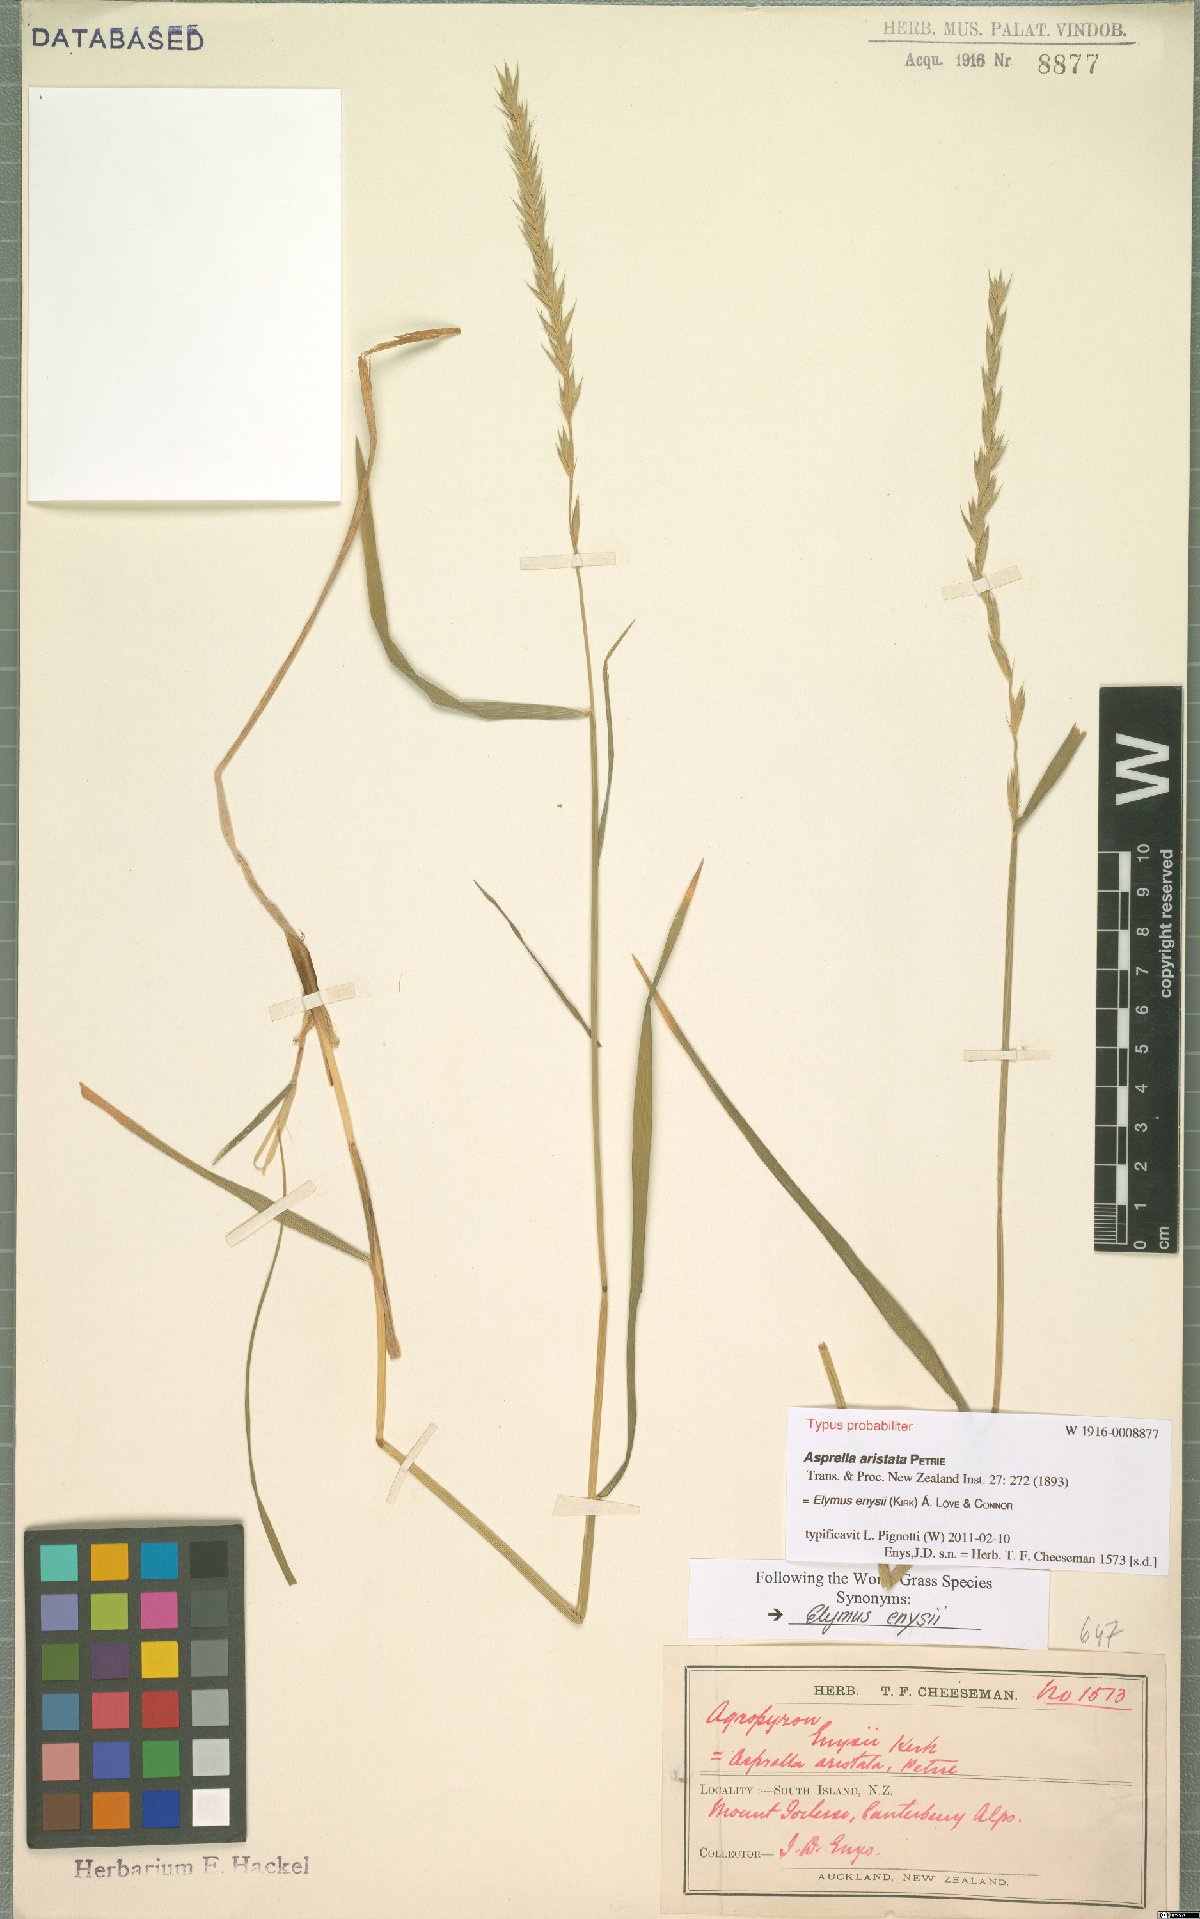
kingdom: Plantae
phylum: Tracheophyta
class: Liliopsida
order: Poales
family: Poaceae
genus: Stenostachys
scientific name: Stenostachys enysii
